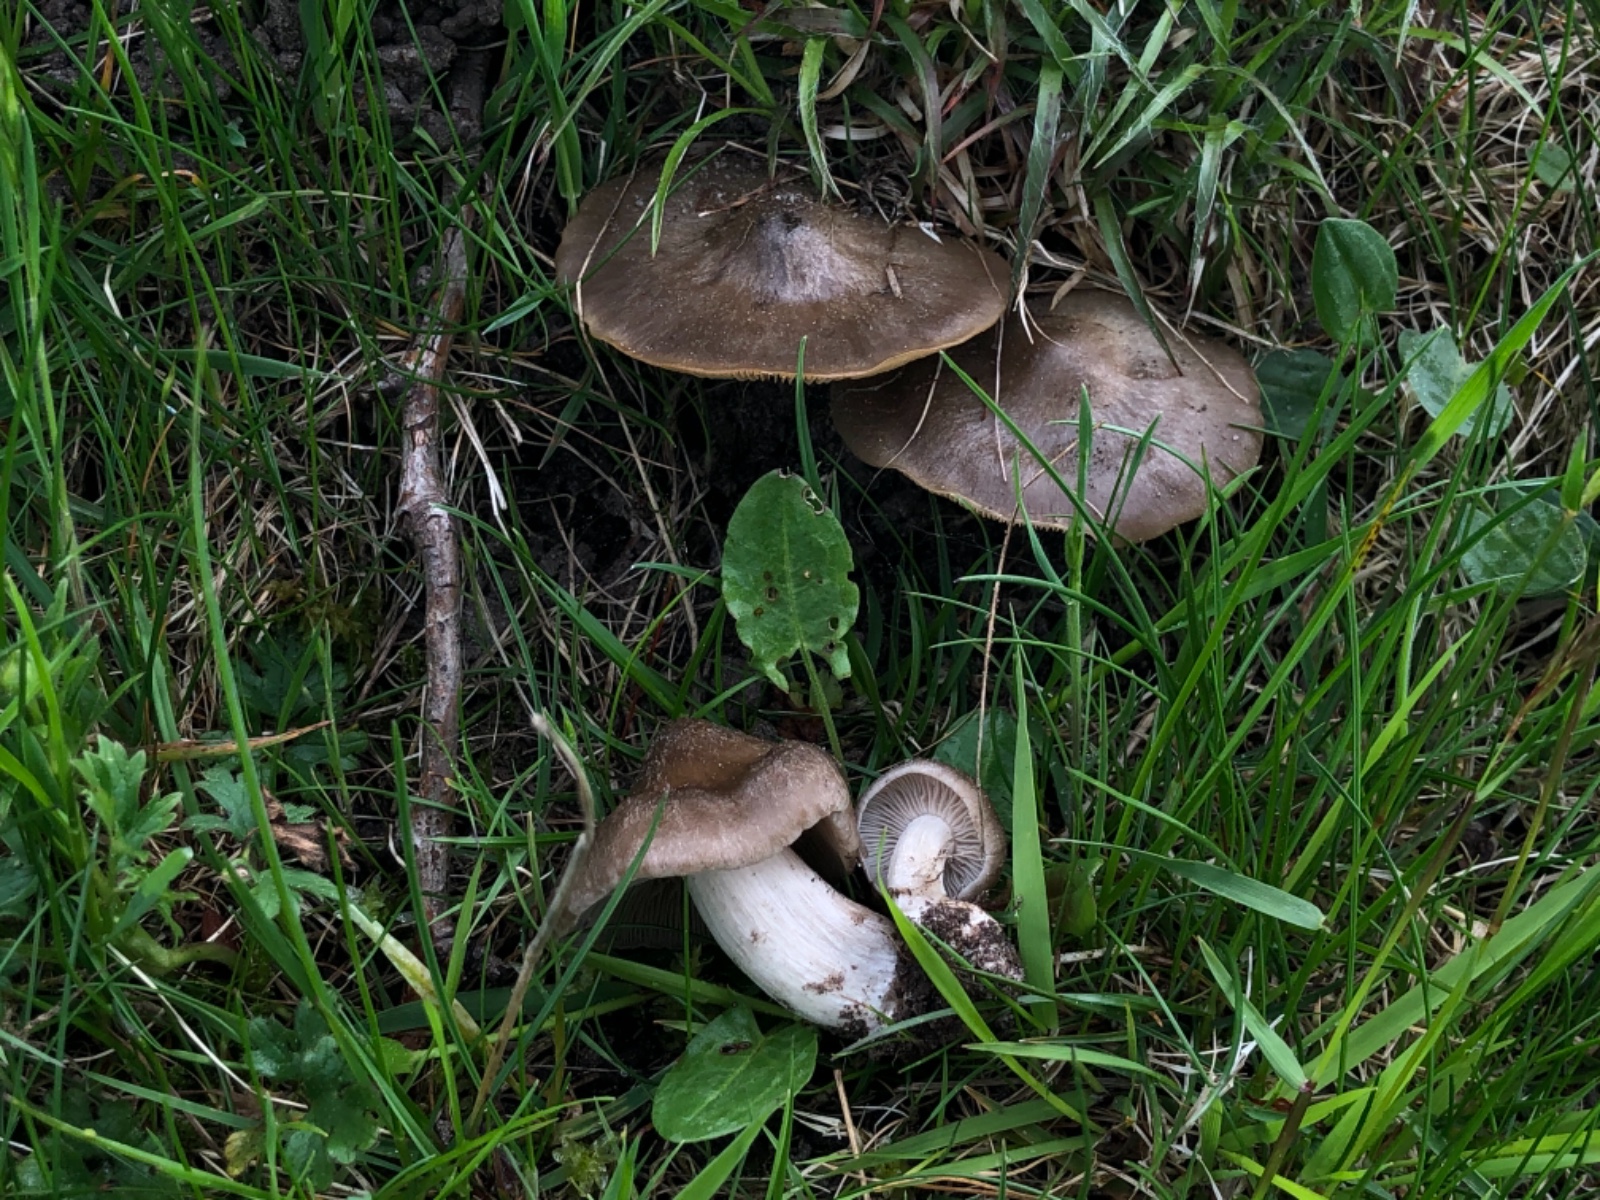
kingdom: Fungi
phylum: Basidiomycota
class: Agaricomycetes
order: Agaricales
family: Entolomataceae
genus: Entoloma
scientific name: Entoloma clypeatum
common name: Shield pinkgill
